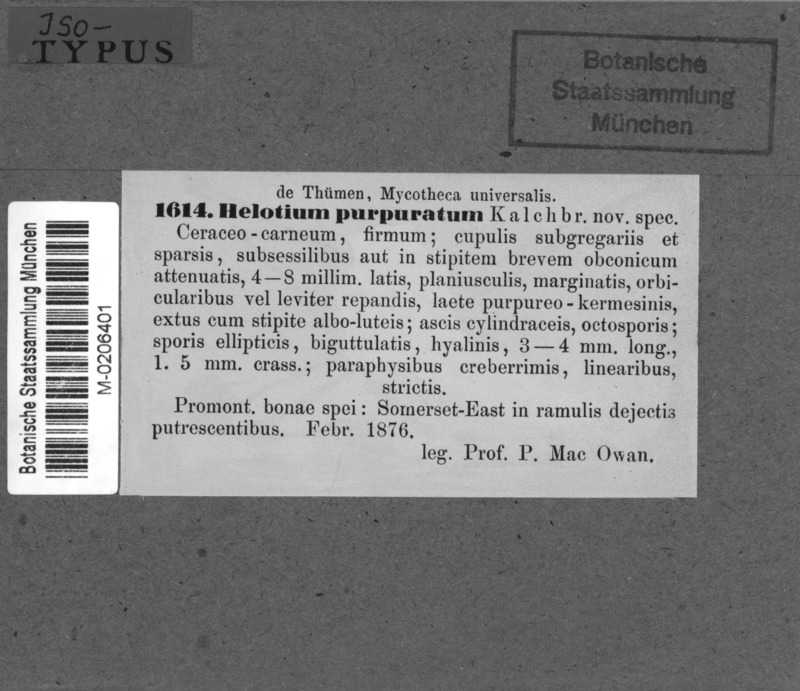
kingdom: Fungi
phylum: Ascomycota
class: Leotiomycetes
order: Helotiales
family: Tricladiaceae
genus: Helotium
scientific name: Helotium
